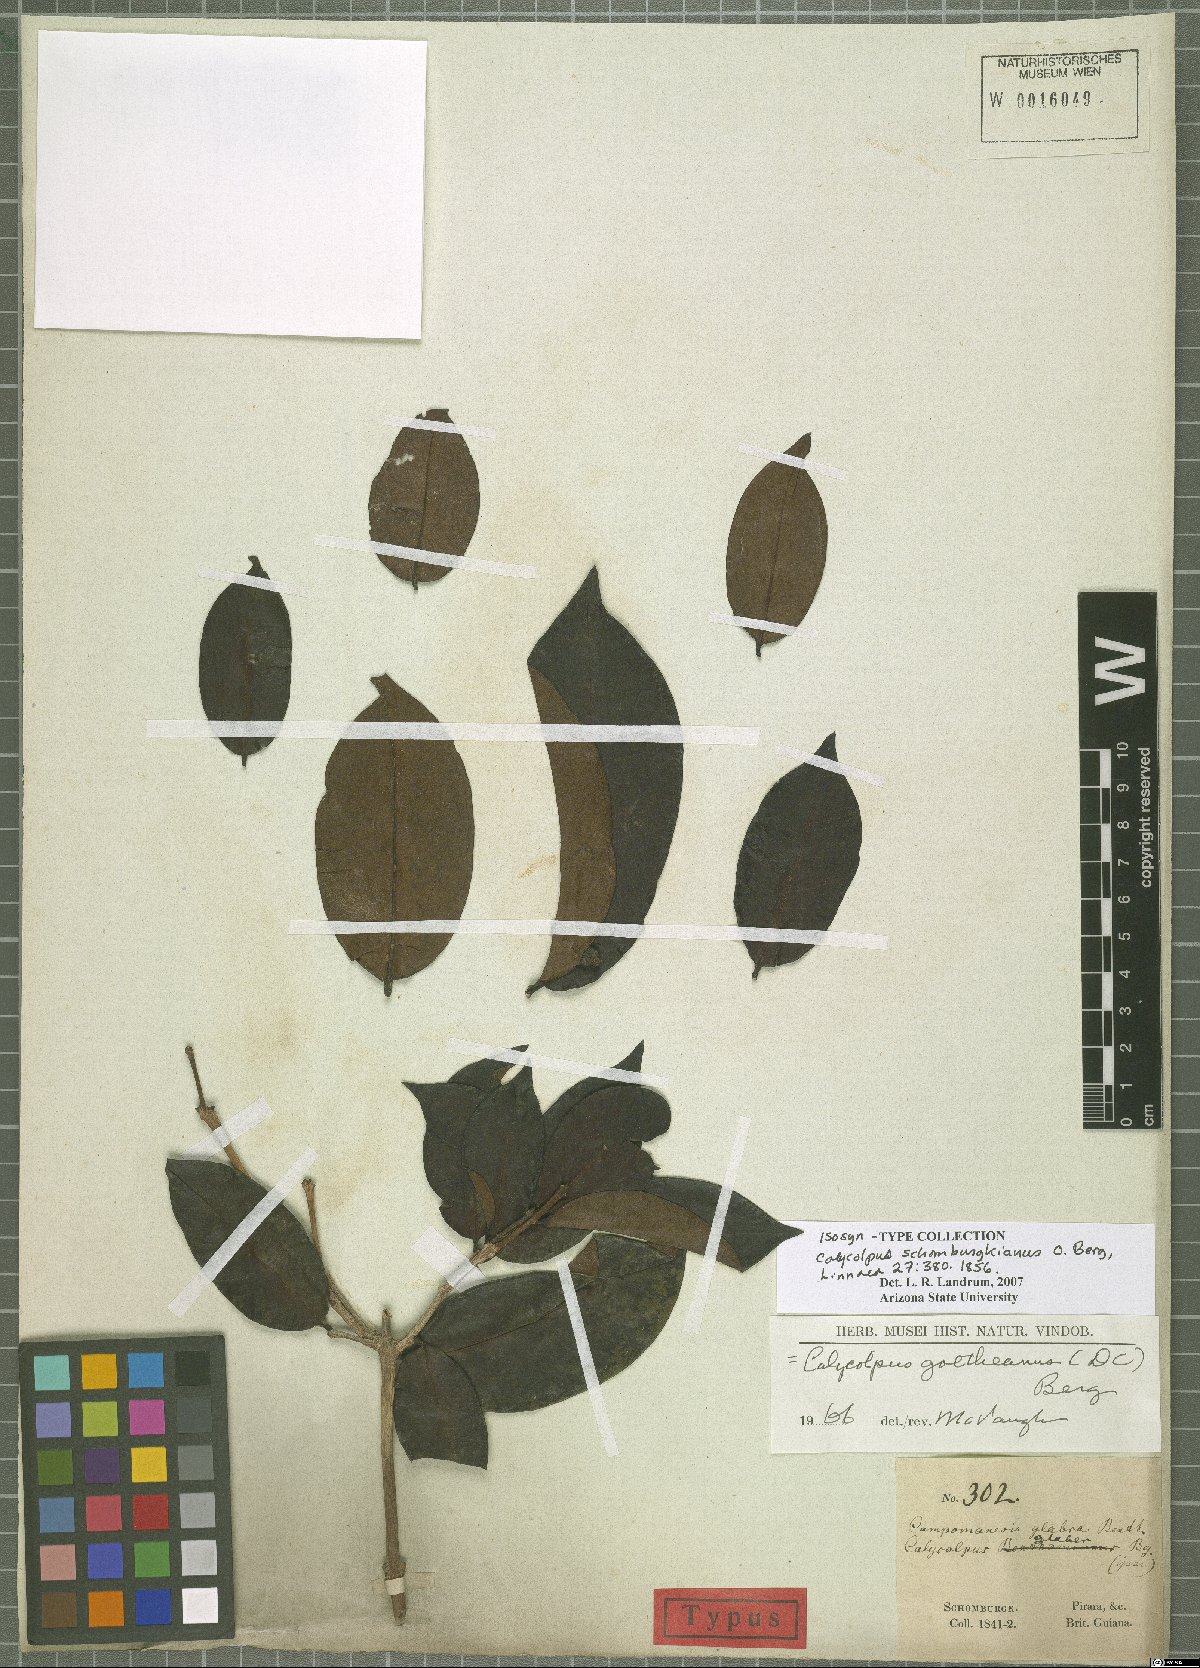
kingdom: Plantae
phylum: Tracheophyta
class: Magnoliopsida
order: Myrtales
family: Myrtaceae
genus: Calycolpus
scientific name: Calycolpus goetheanus
